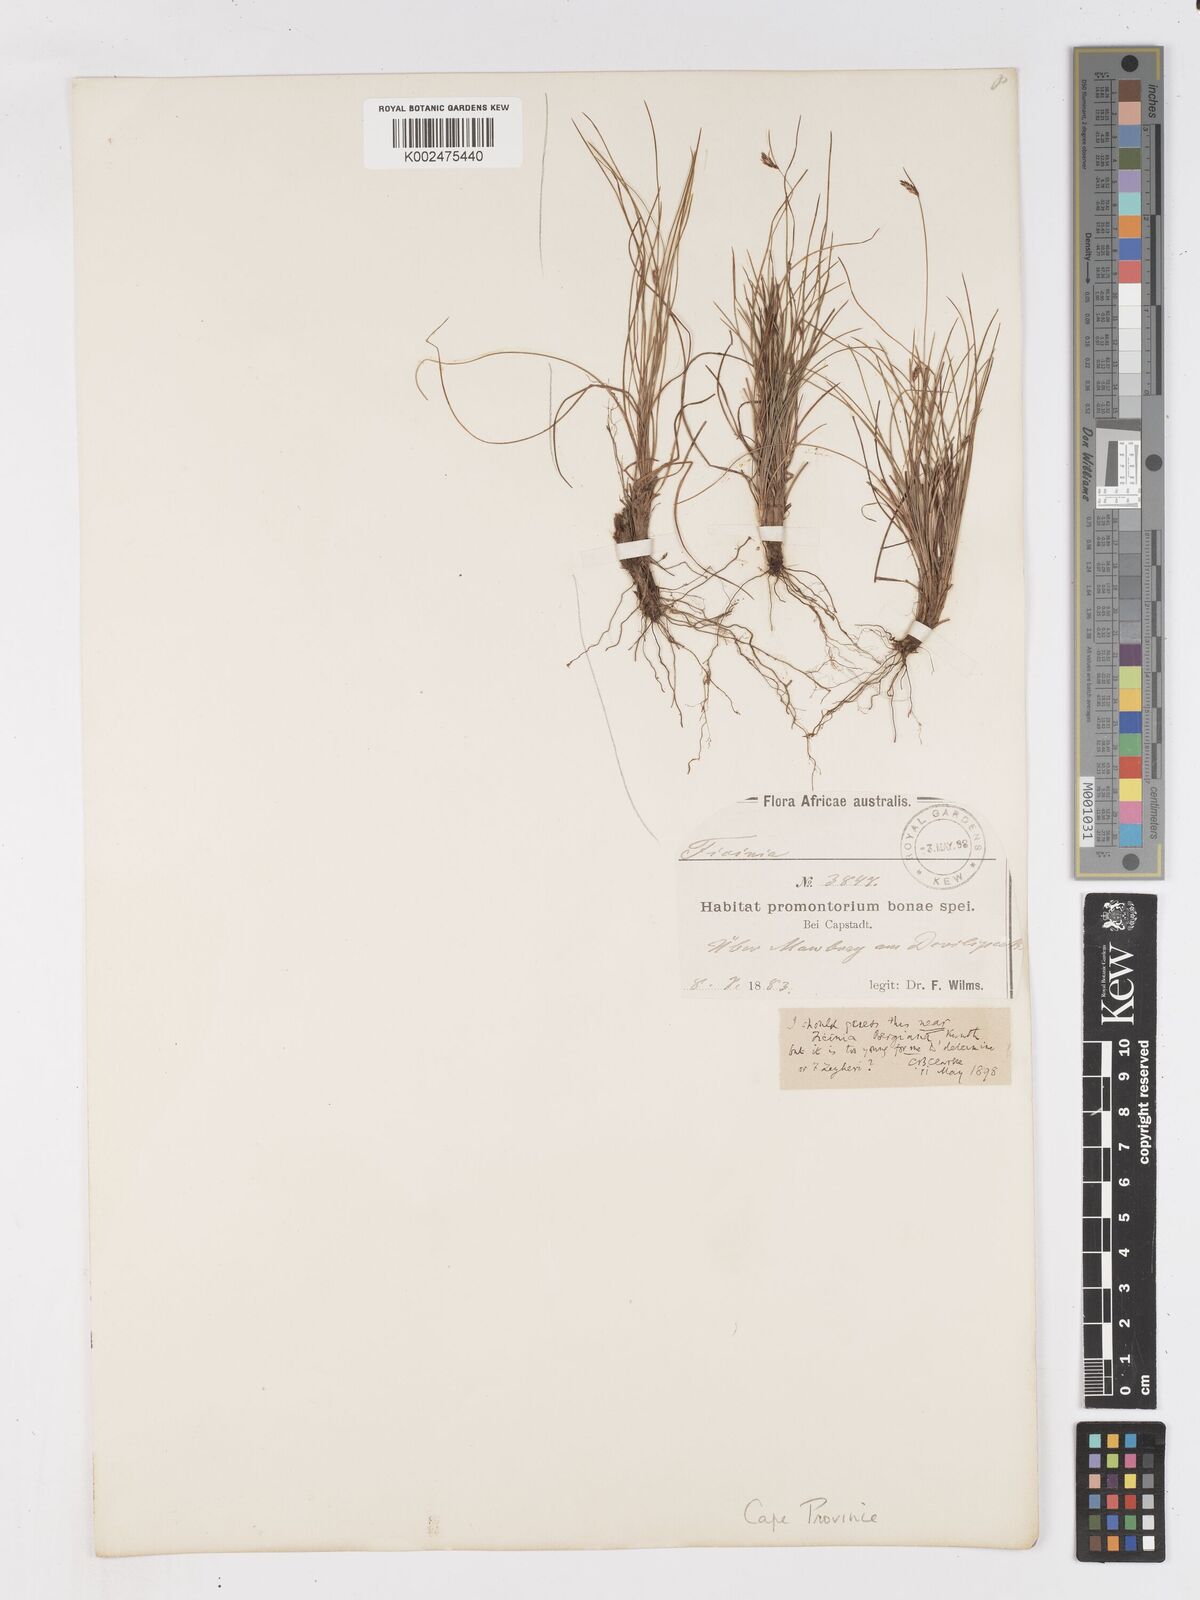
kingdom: Plantae
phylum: Tracheophyta
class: Liliopsida
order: Poales
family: Cyperaceae
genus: Ficinia
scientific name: Ficinia acuminata
